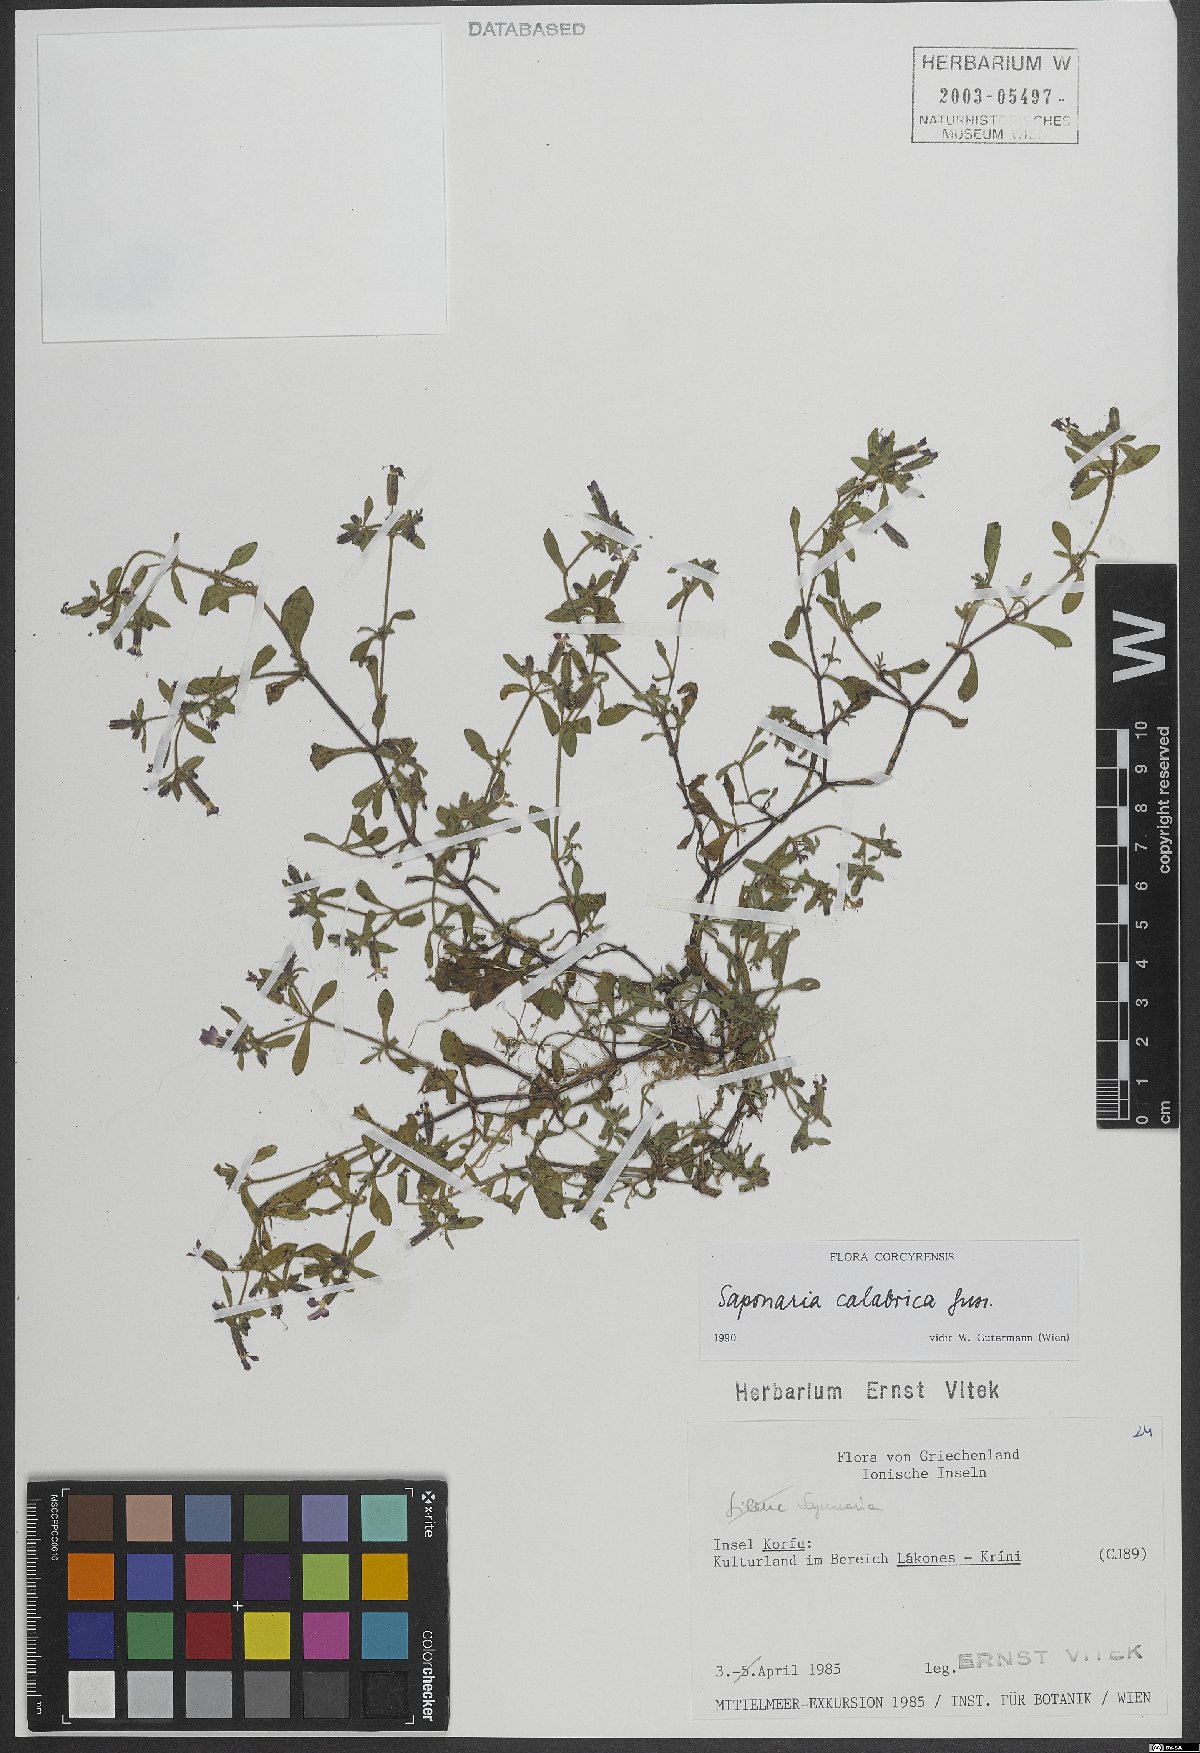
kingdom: Plantae
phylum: Tracheophyta
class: Magnoliopsida
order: Caryophyllales
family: Caryophyllaceae
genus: Saponaria
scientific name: Saponaria calabrica
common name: Adriatic soapwort
